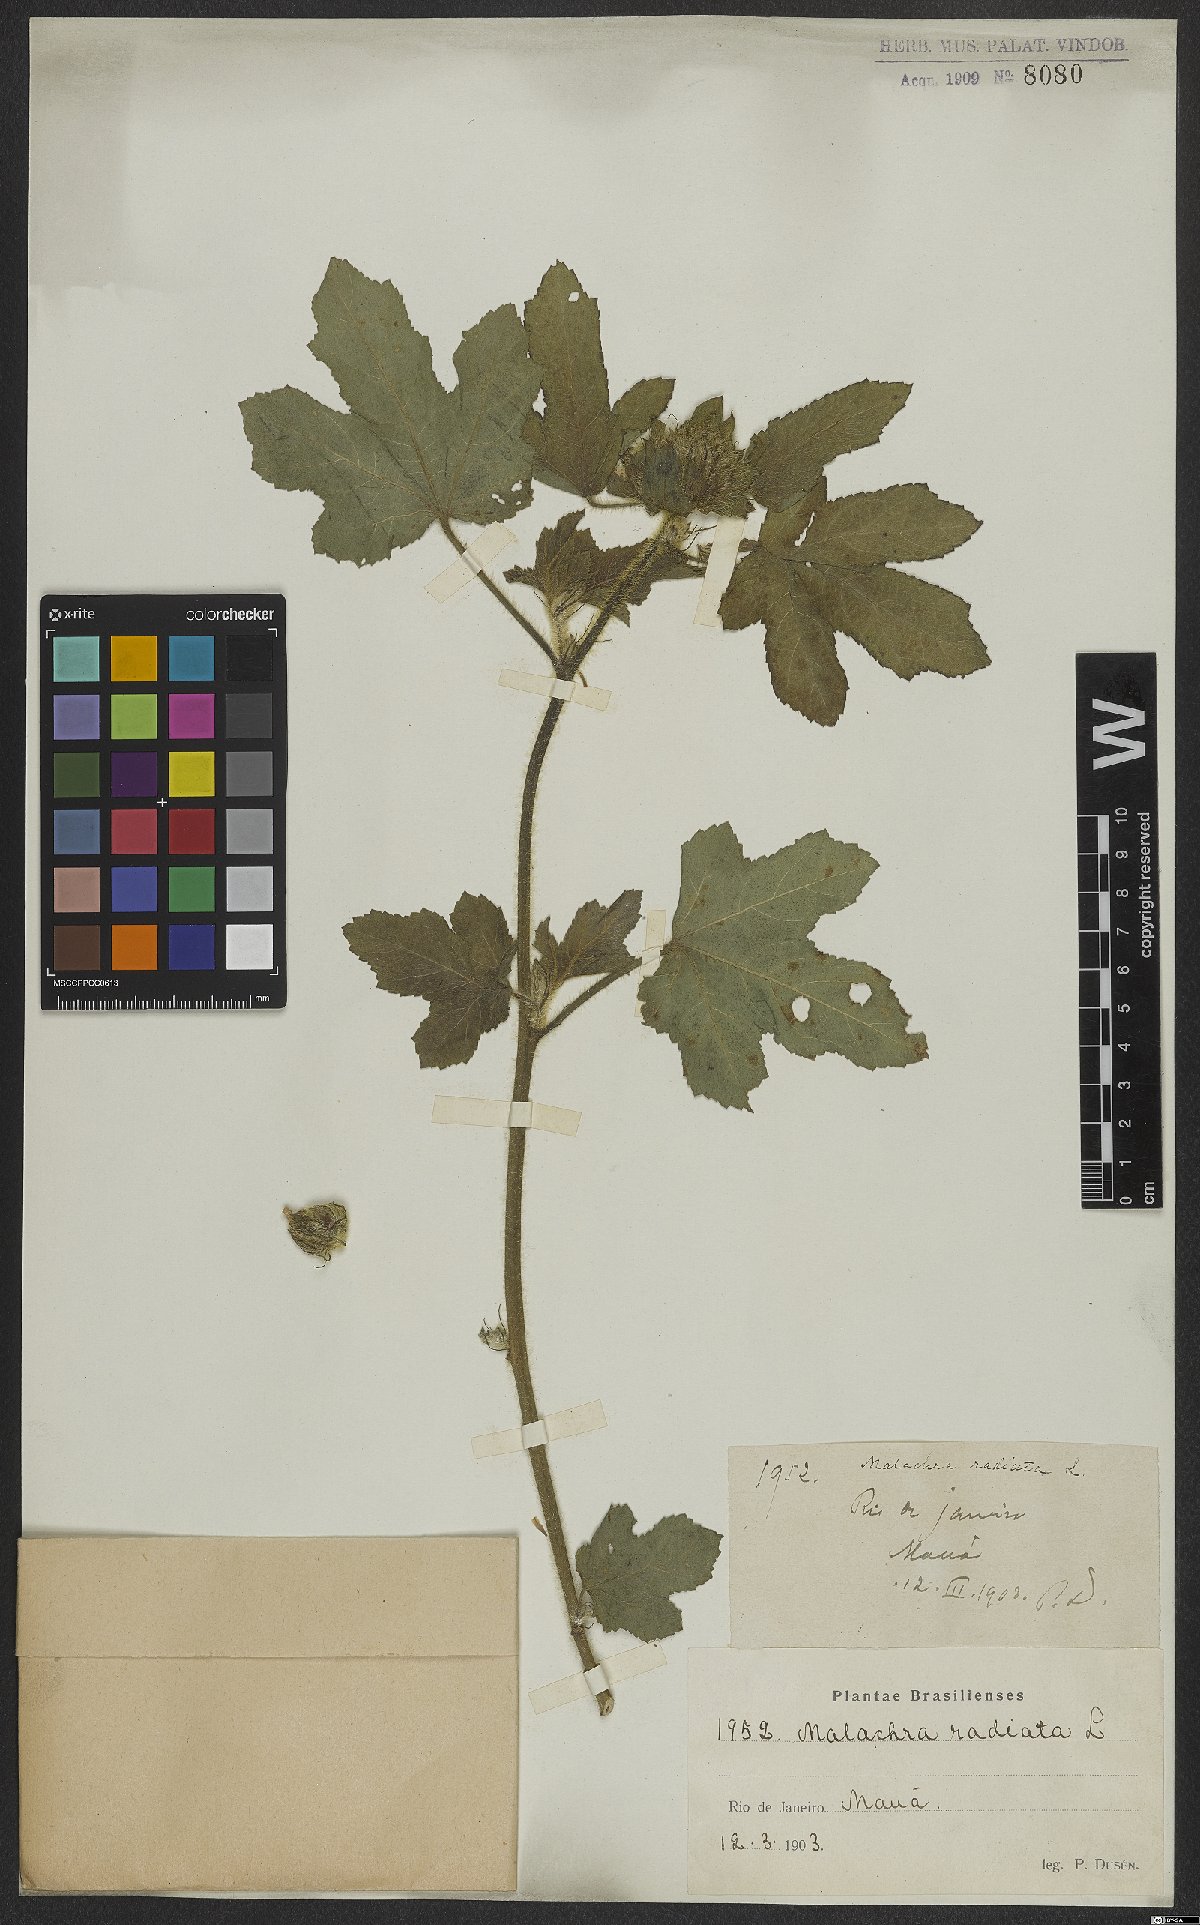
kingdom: Plantae
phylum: Tracheophyta
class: Magnoliopsida
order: Malvales
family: Malvaceae
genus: Malachra
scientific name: Malachra radiata
